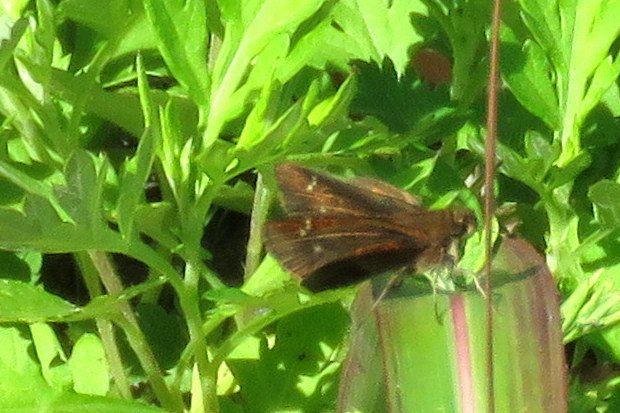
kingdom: Animalia
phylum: Arthropoda
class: Insecta
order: Lepidoptera
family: Hesperiidae
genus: Lerema
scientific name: Lerema accius
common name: Clouded Skipper
